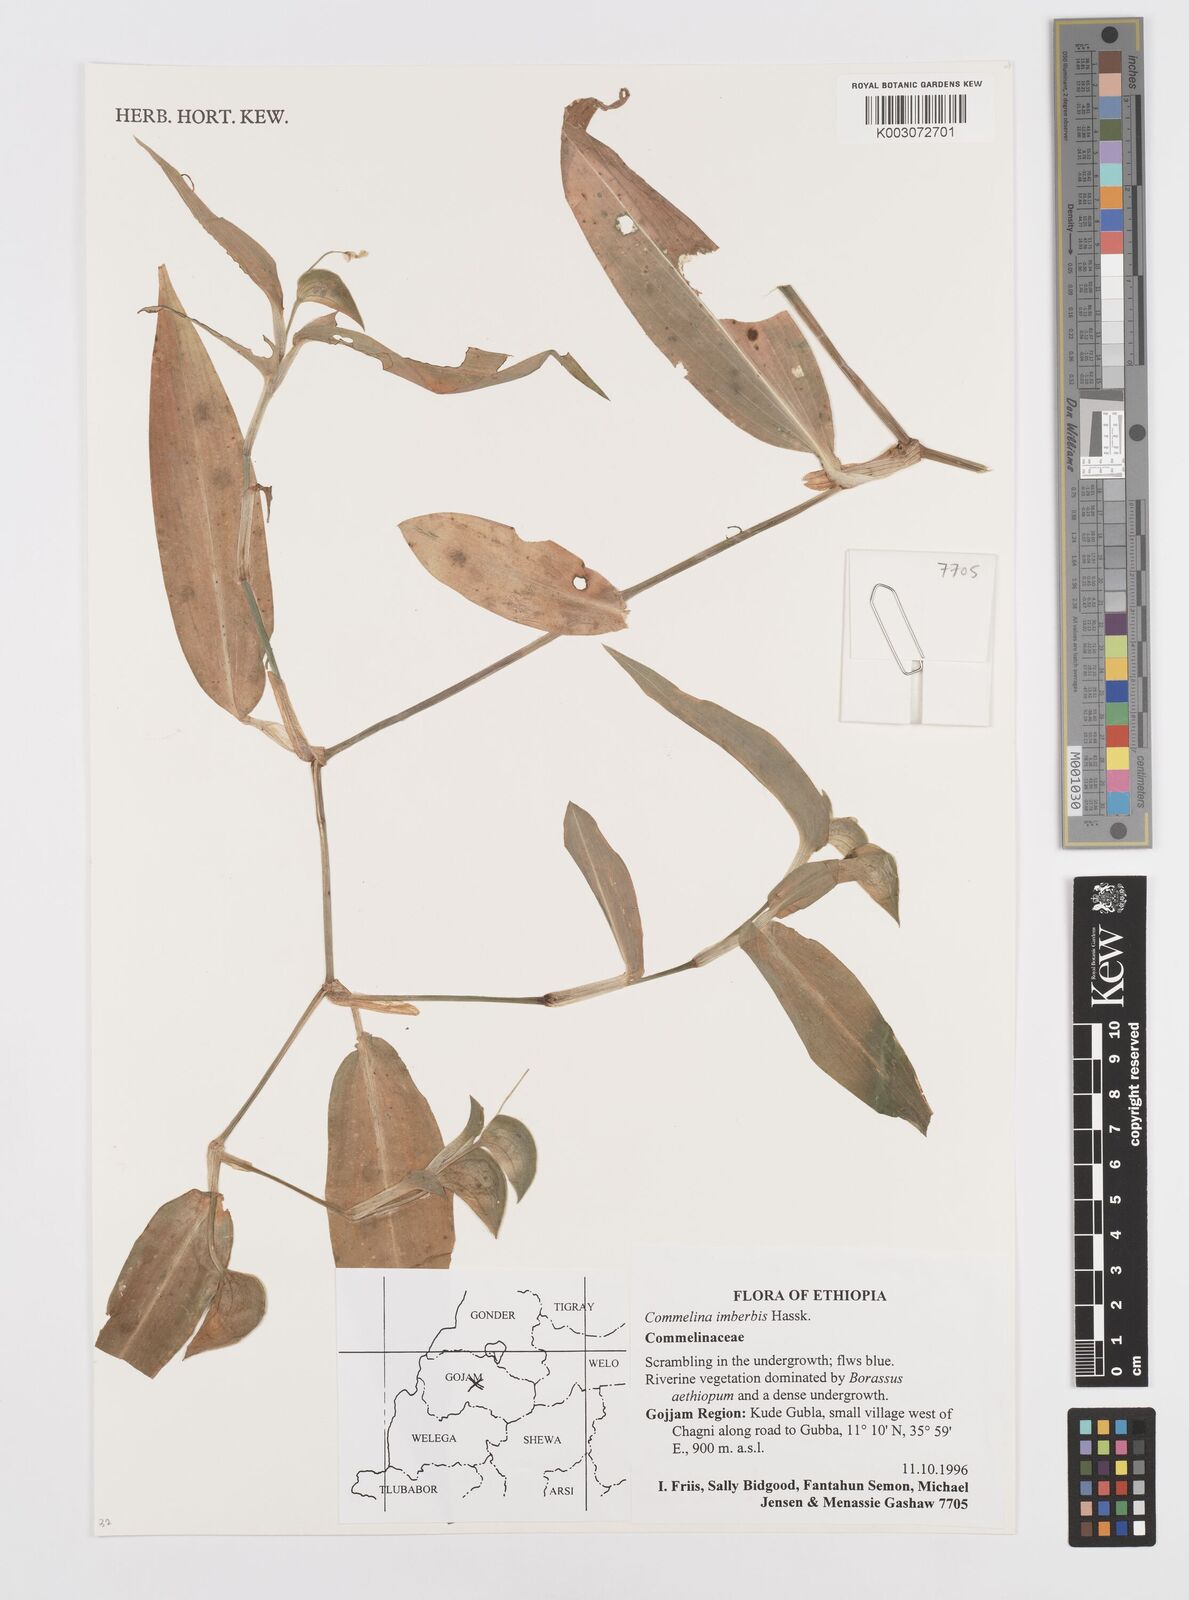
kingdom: Plantae
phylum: Tracheophyta
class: Liliopsida
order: Commelinales
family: Commelinaceae
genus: Commelina
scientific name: Commelina imberbis
